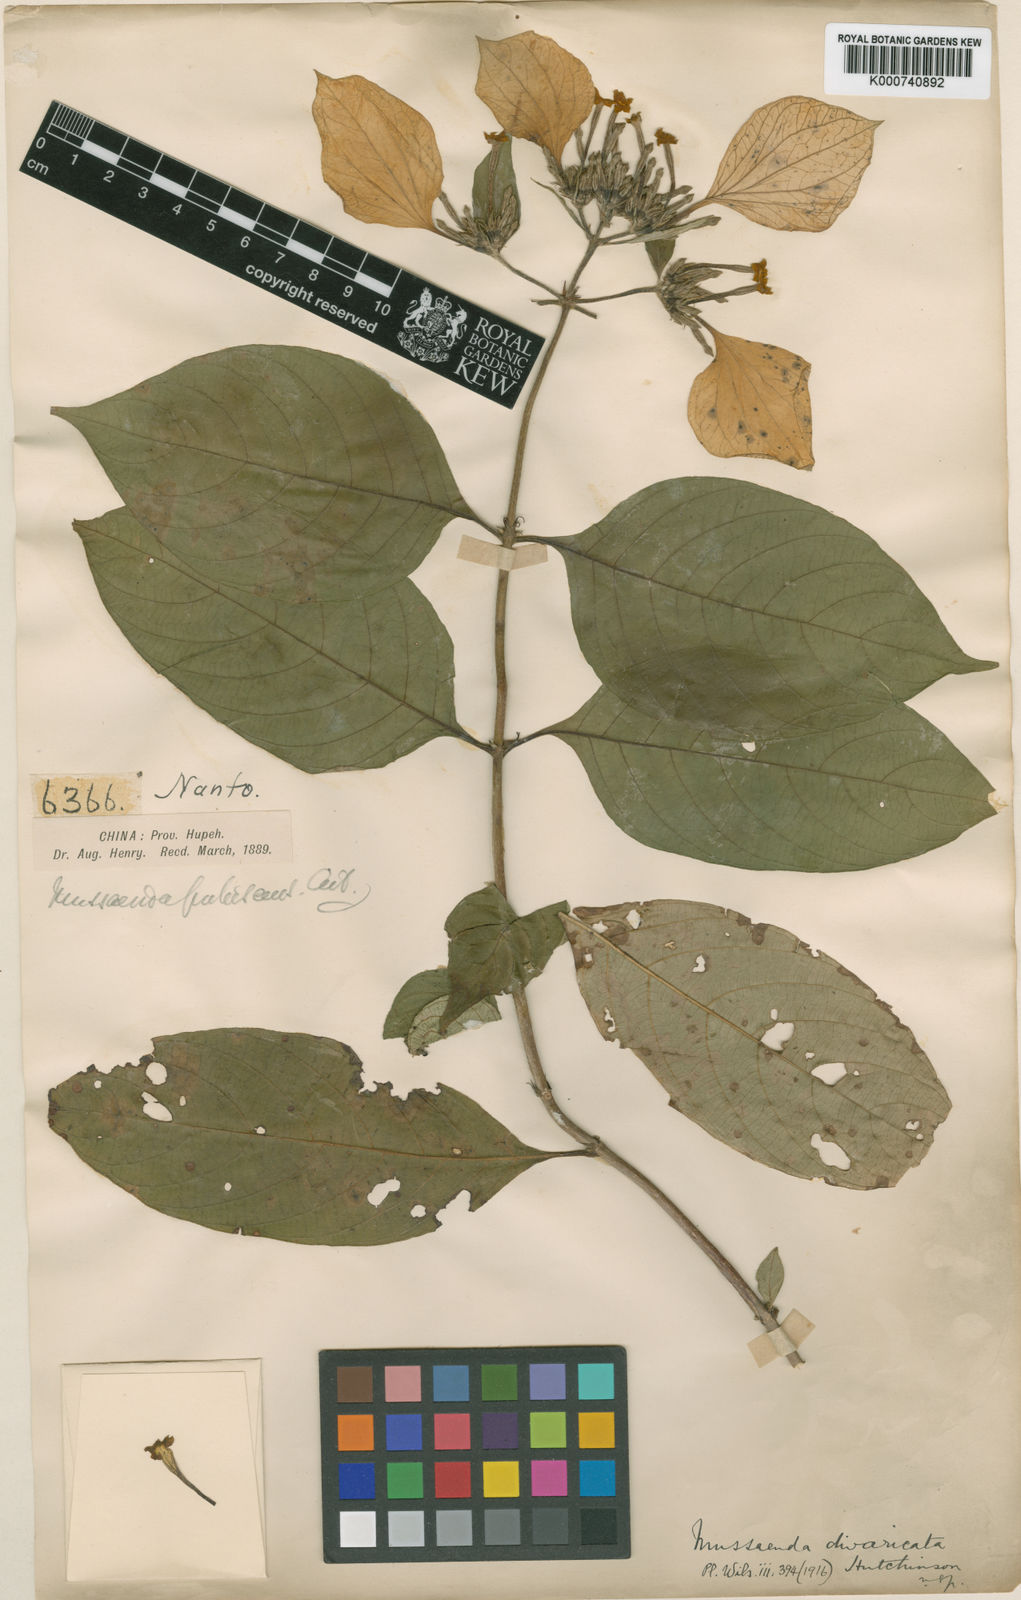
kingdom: Plantae
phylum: Tracheophyta
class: Magnoliopsida
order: Gentianales
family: Rubiaceae
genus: Mussaenda
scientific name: Mussaenda divaricata
